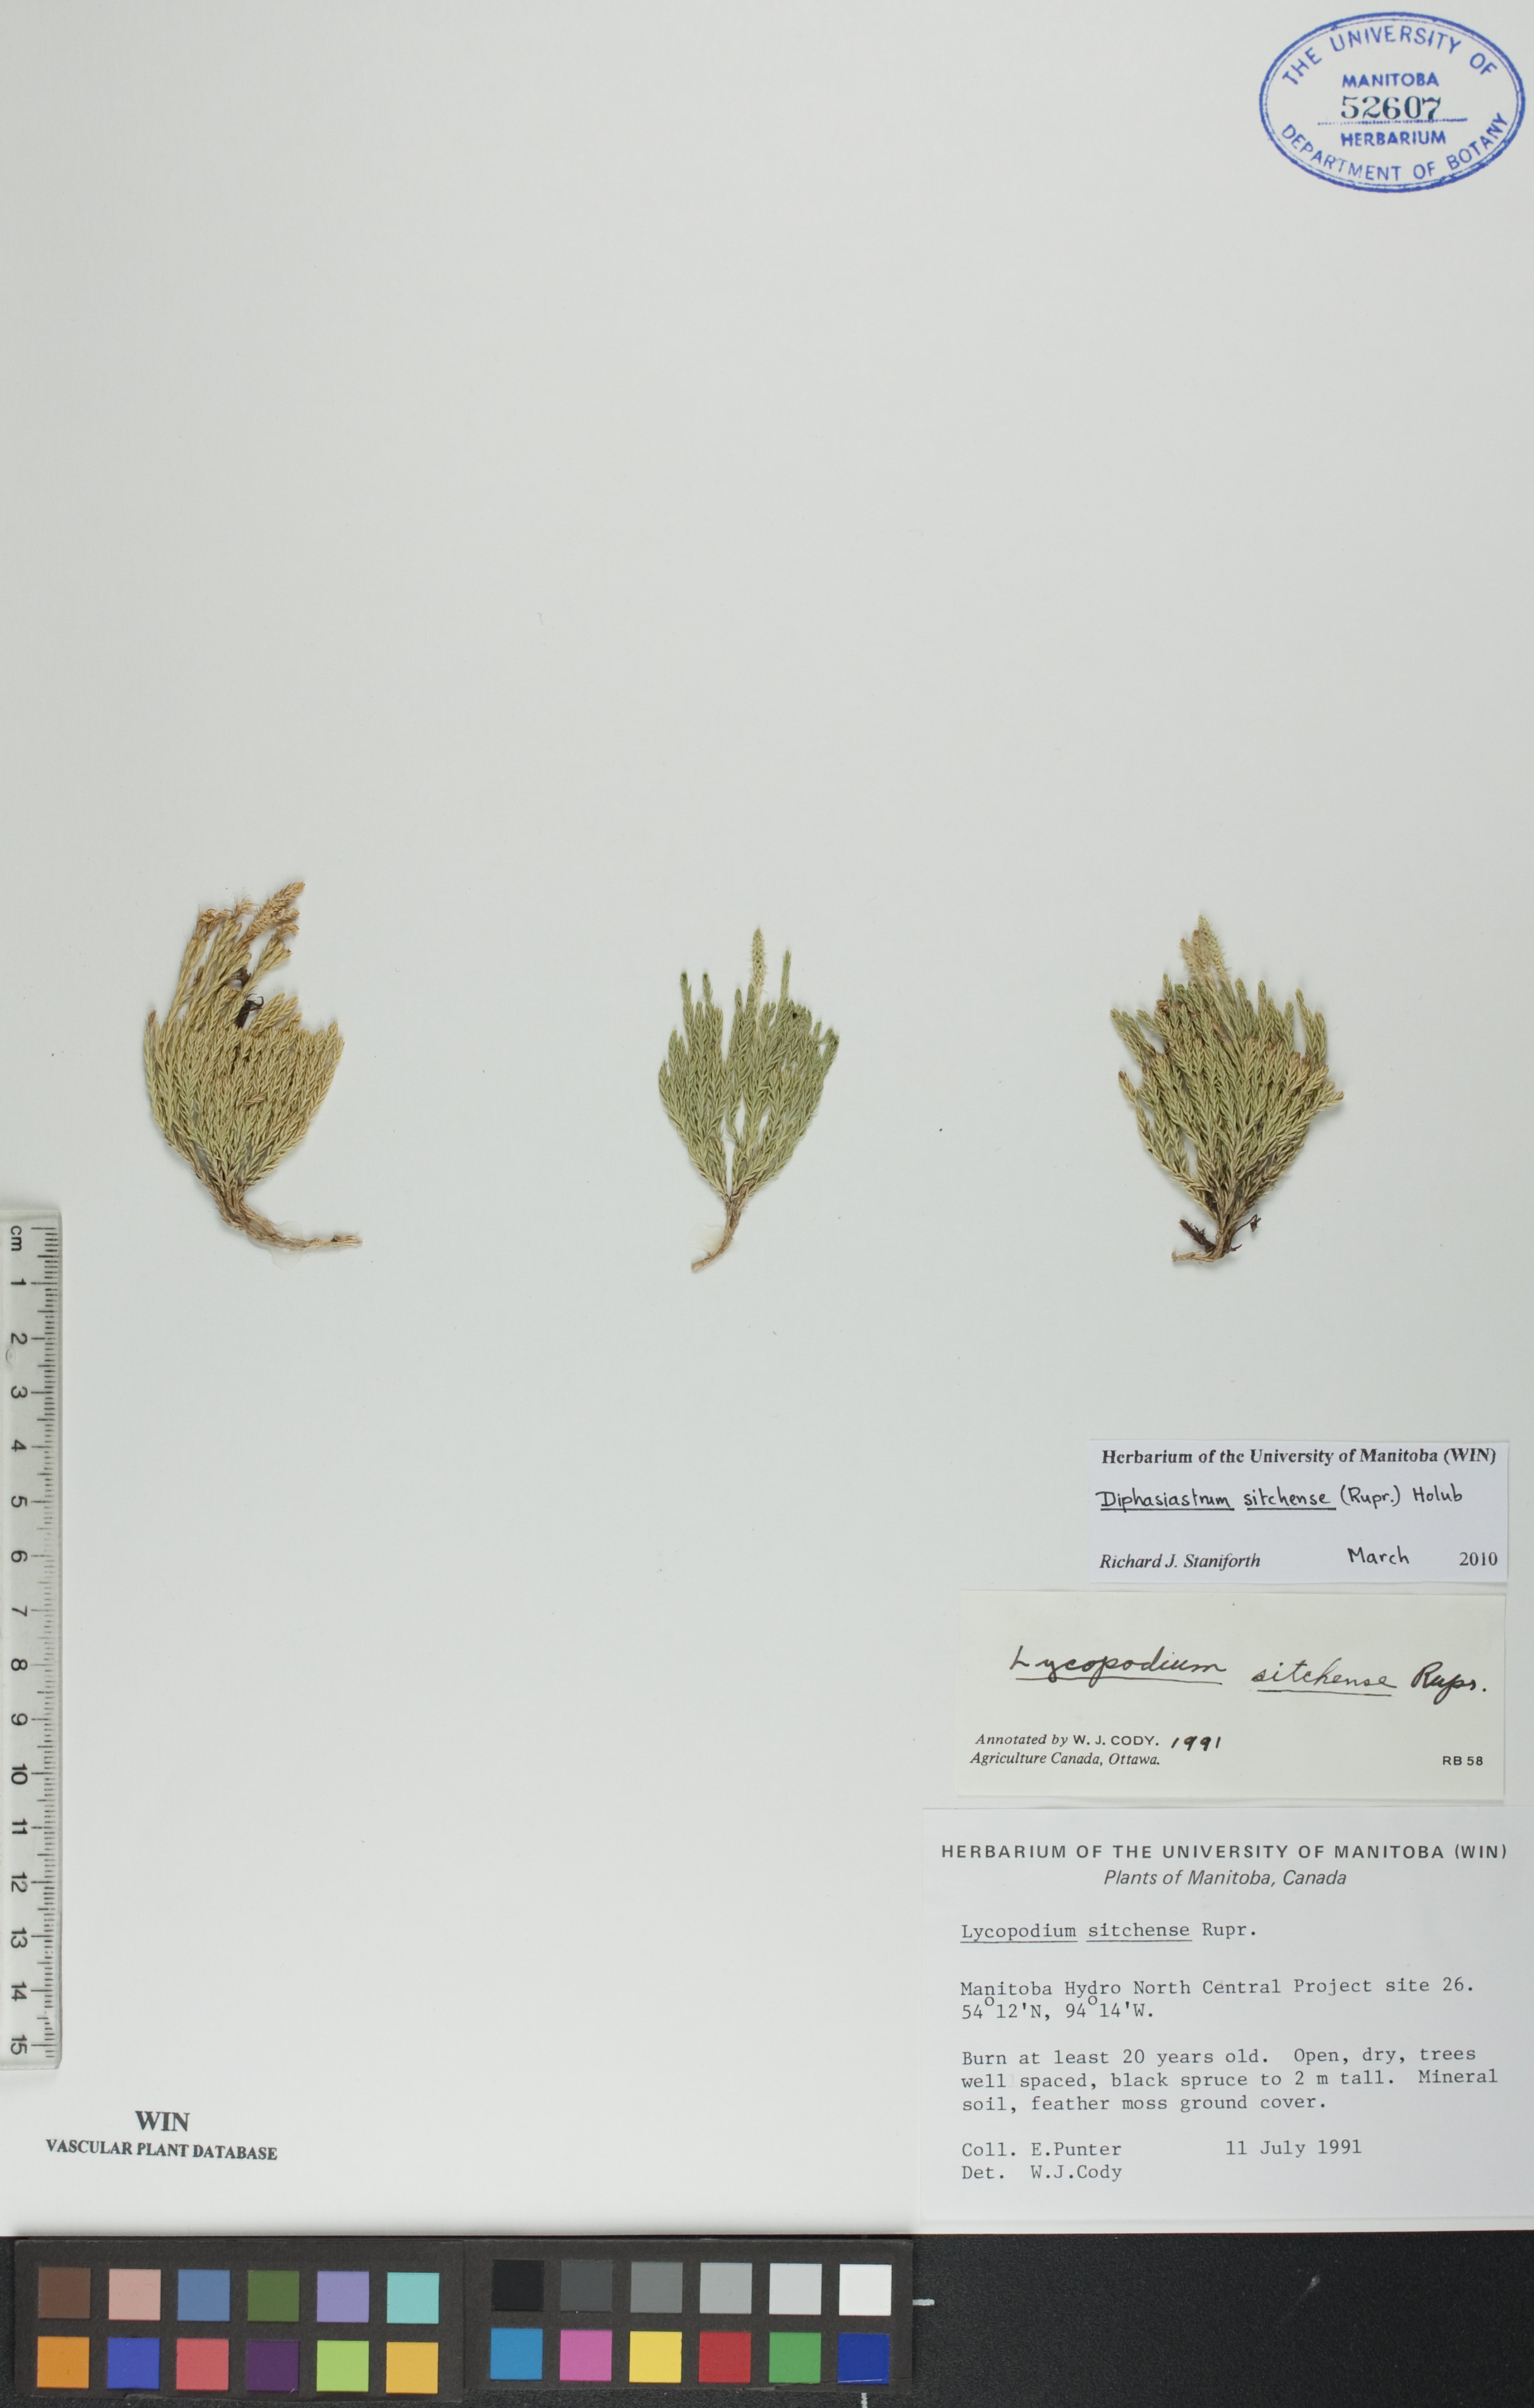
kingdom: Plantae
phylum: Tracheophyta
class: Lycopodiopsida
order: Lycopodiales
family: Lycopodiaceae
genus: Diphasiastrum
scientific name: Diphasiastrum sitchense
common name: Alaska clubmoss
